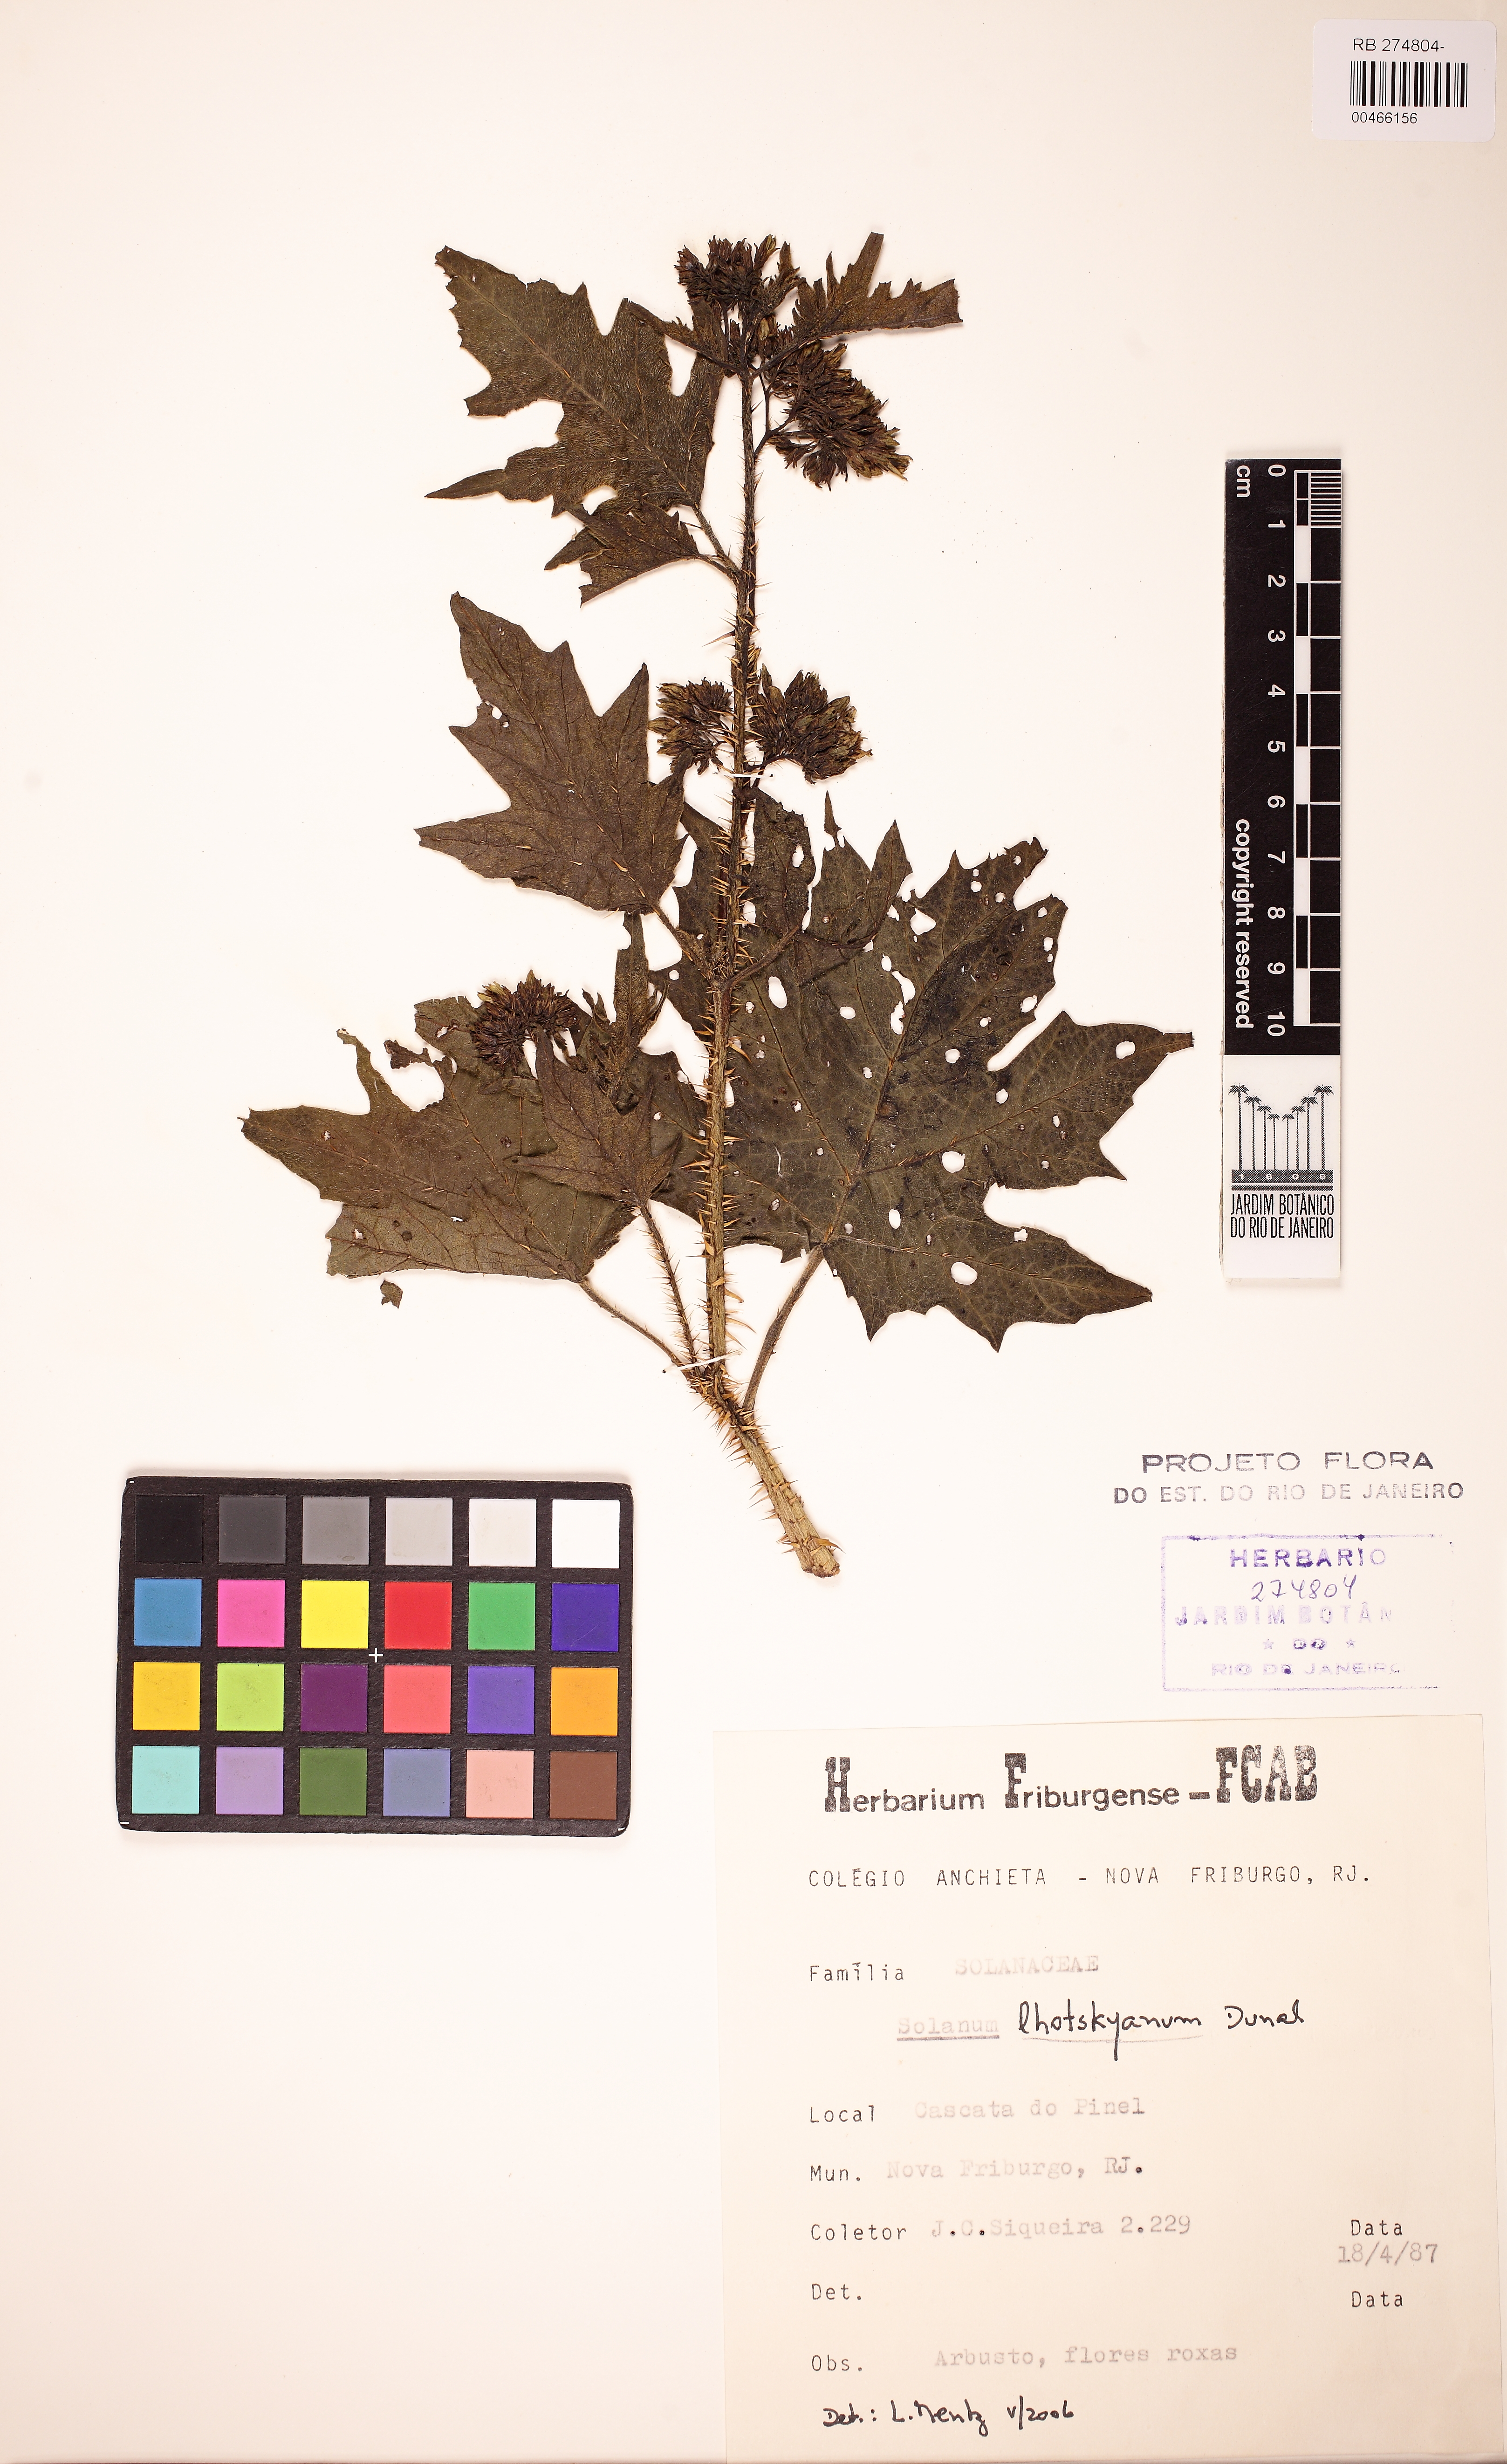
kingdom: Plantae
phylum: Tracheophyta
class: Magnoliopsida
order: Solanales
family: Solanaceae
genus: Solanum
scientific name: Solanum lhotskyanum
